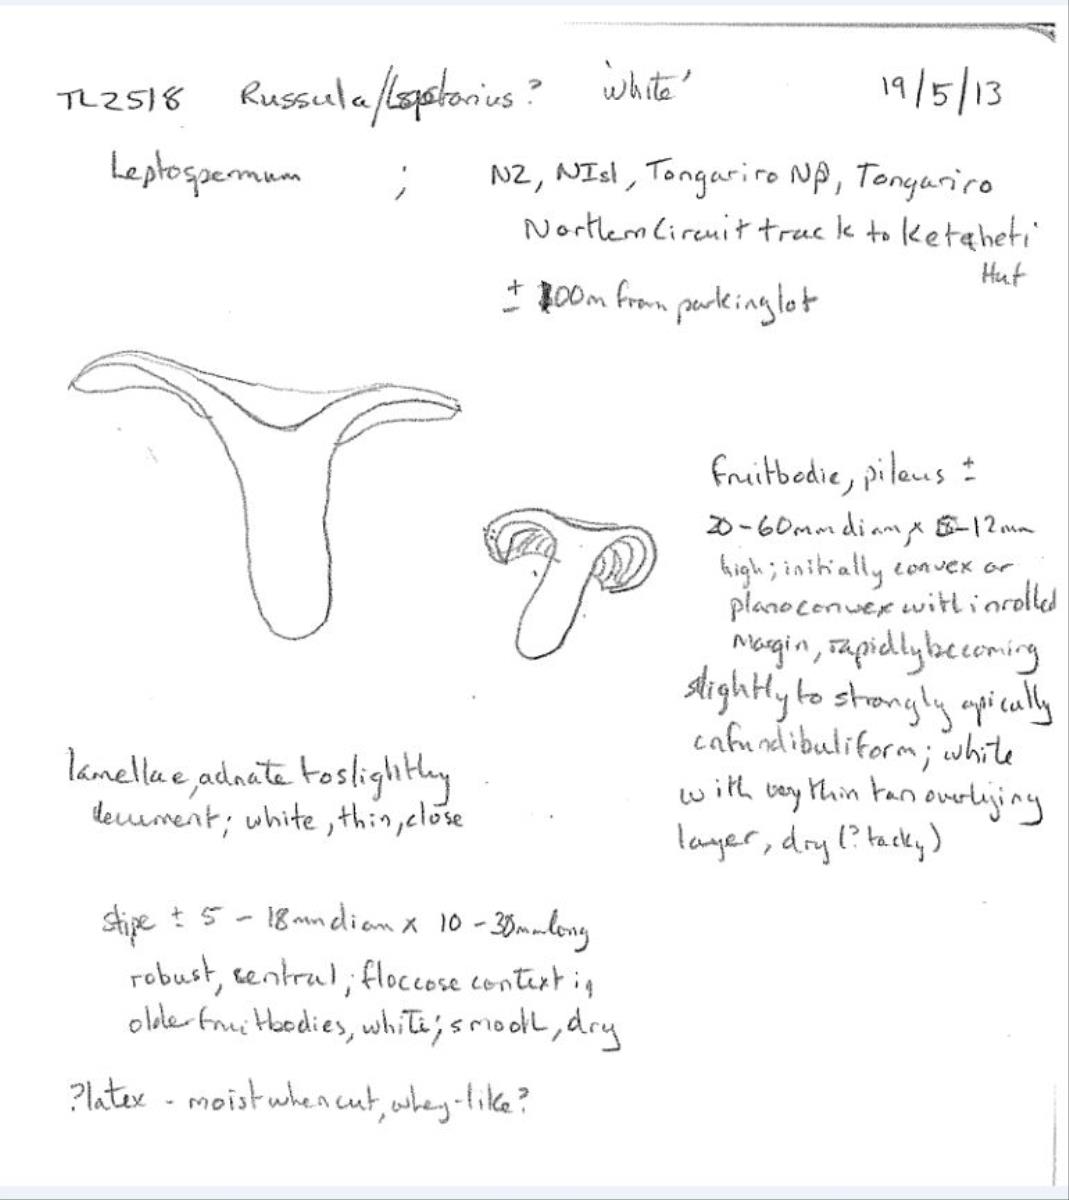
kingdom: Fungi
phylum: Basidiomycota
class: Agaricomycetes
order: Russulales
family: Russulaceae
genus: Russula
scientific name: Russula
